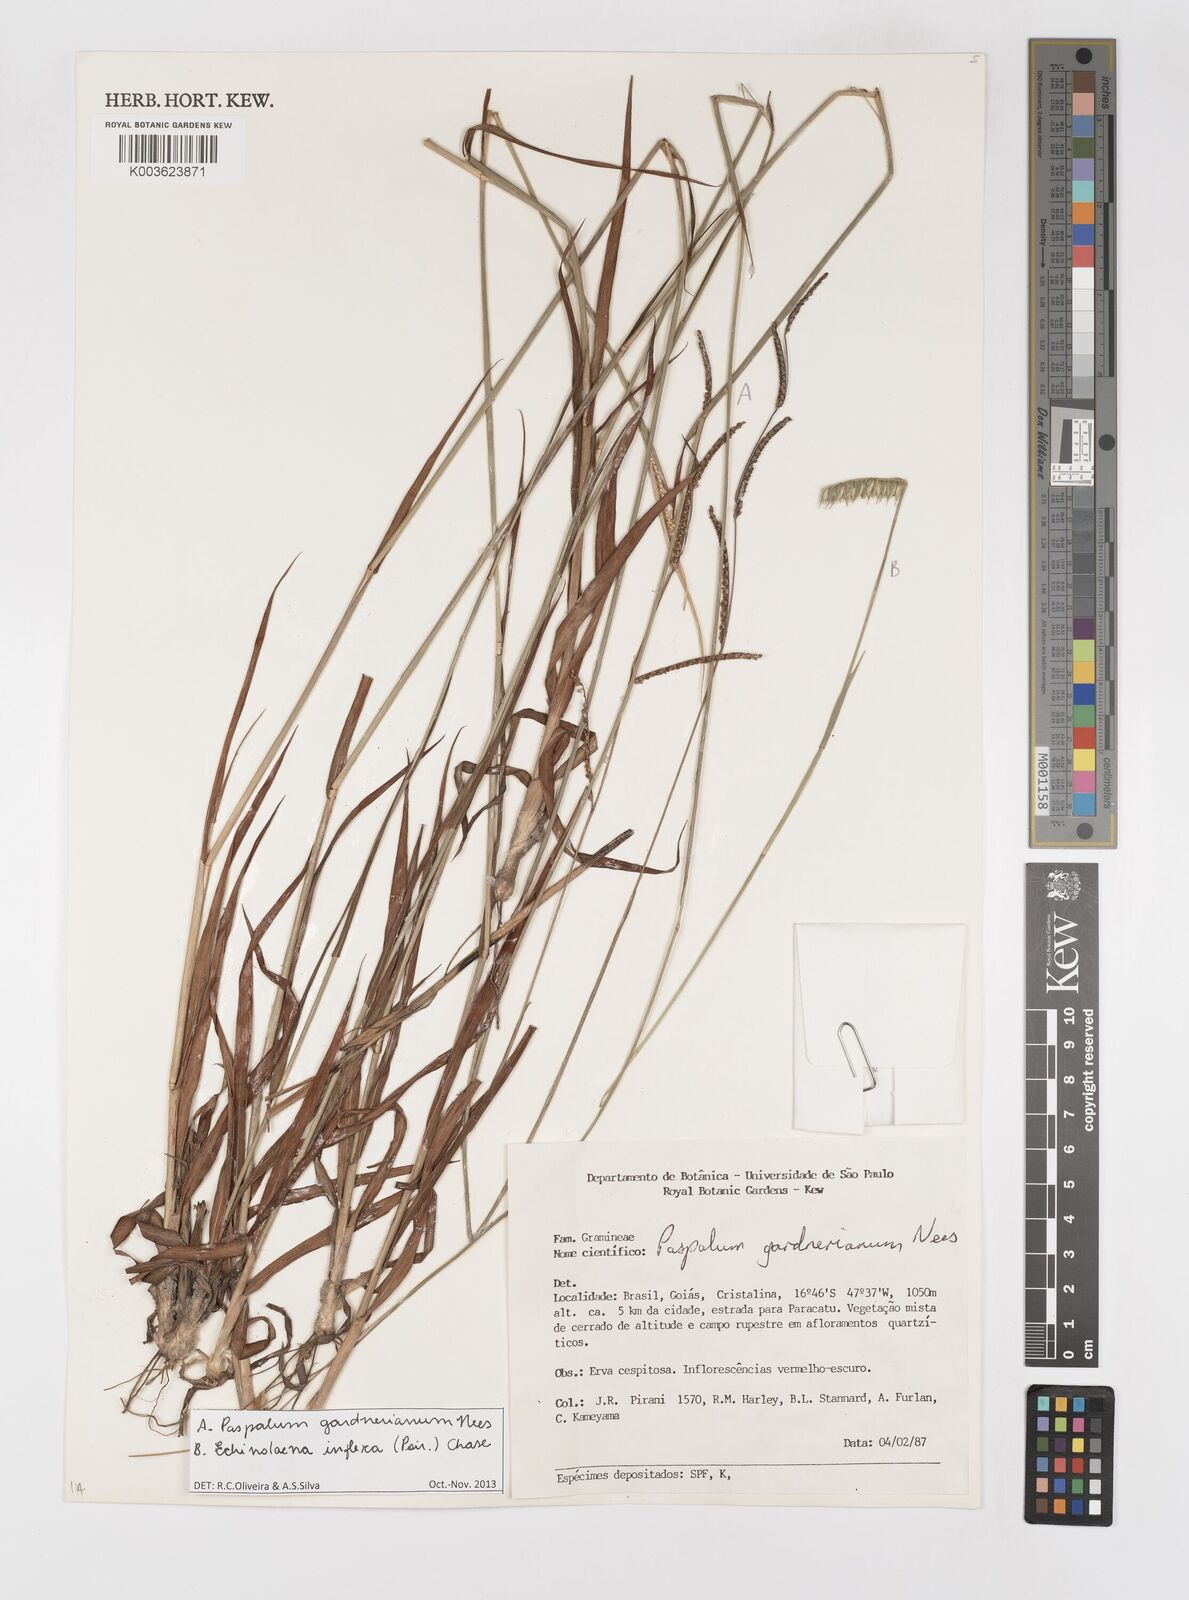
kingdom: Plantae
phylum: Tracheophyta
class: Liliopsida
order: Poales
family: Poaceae
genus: Paspalum
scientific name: Paspalum gardnerianum
